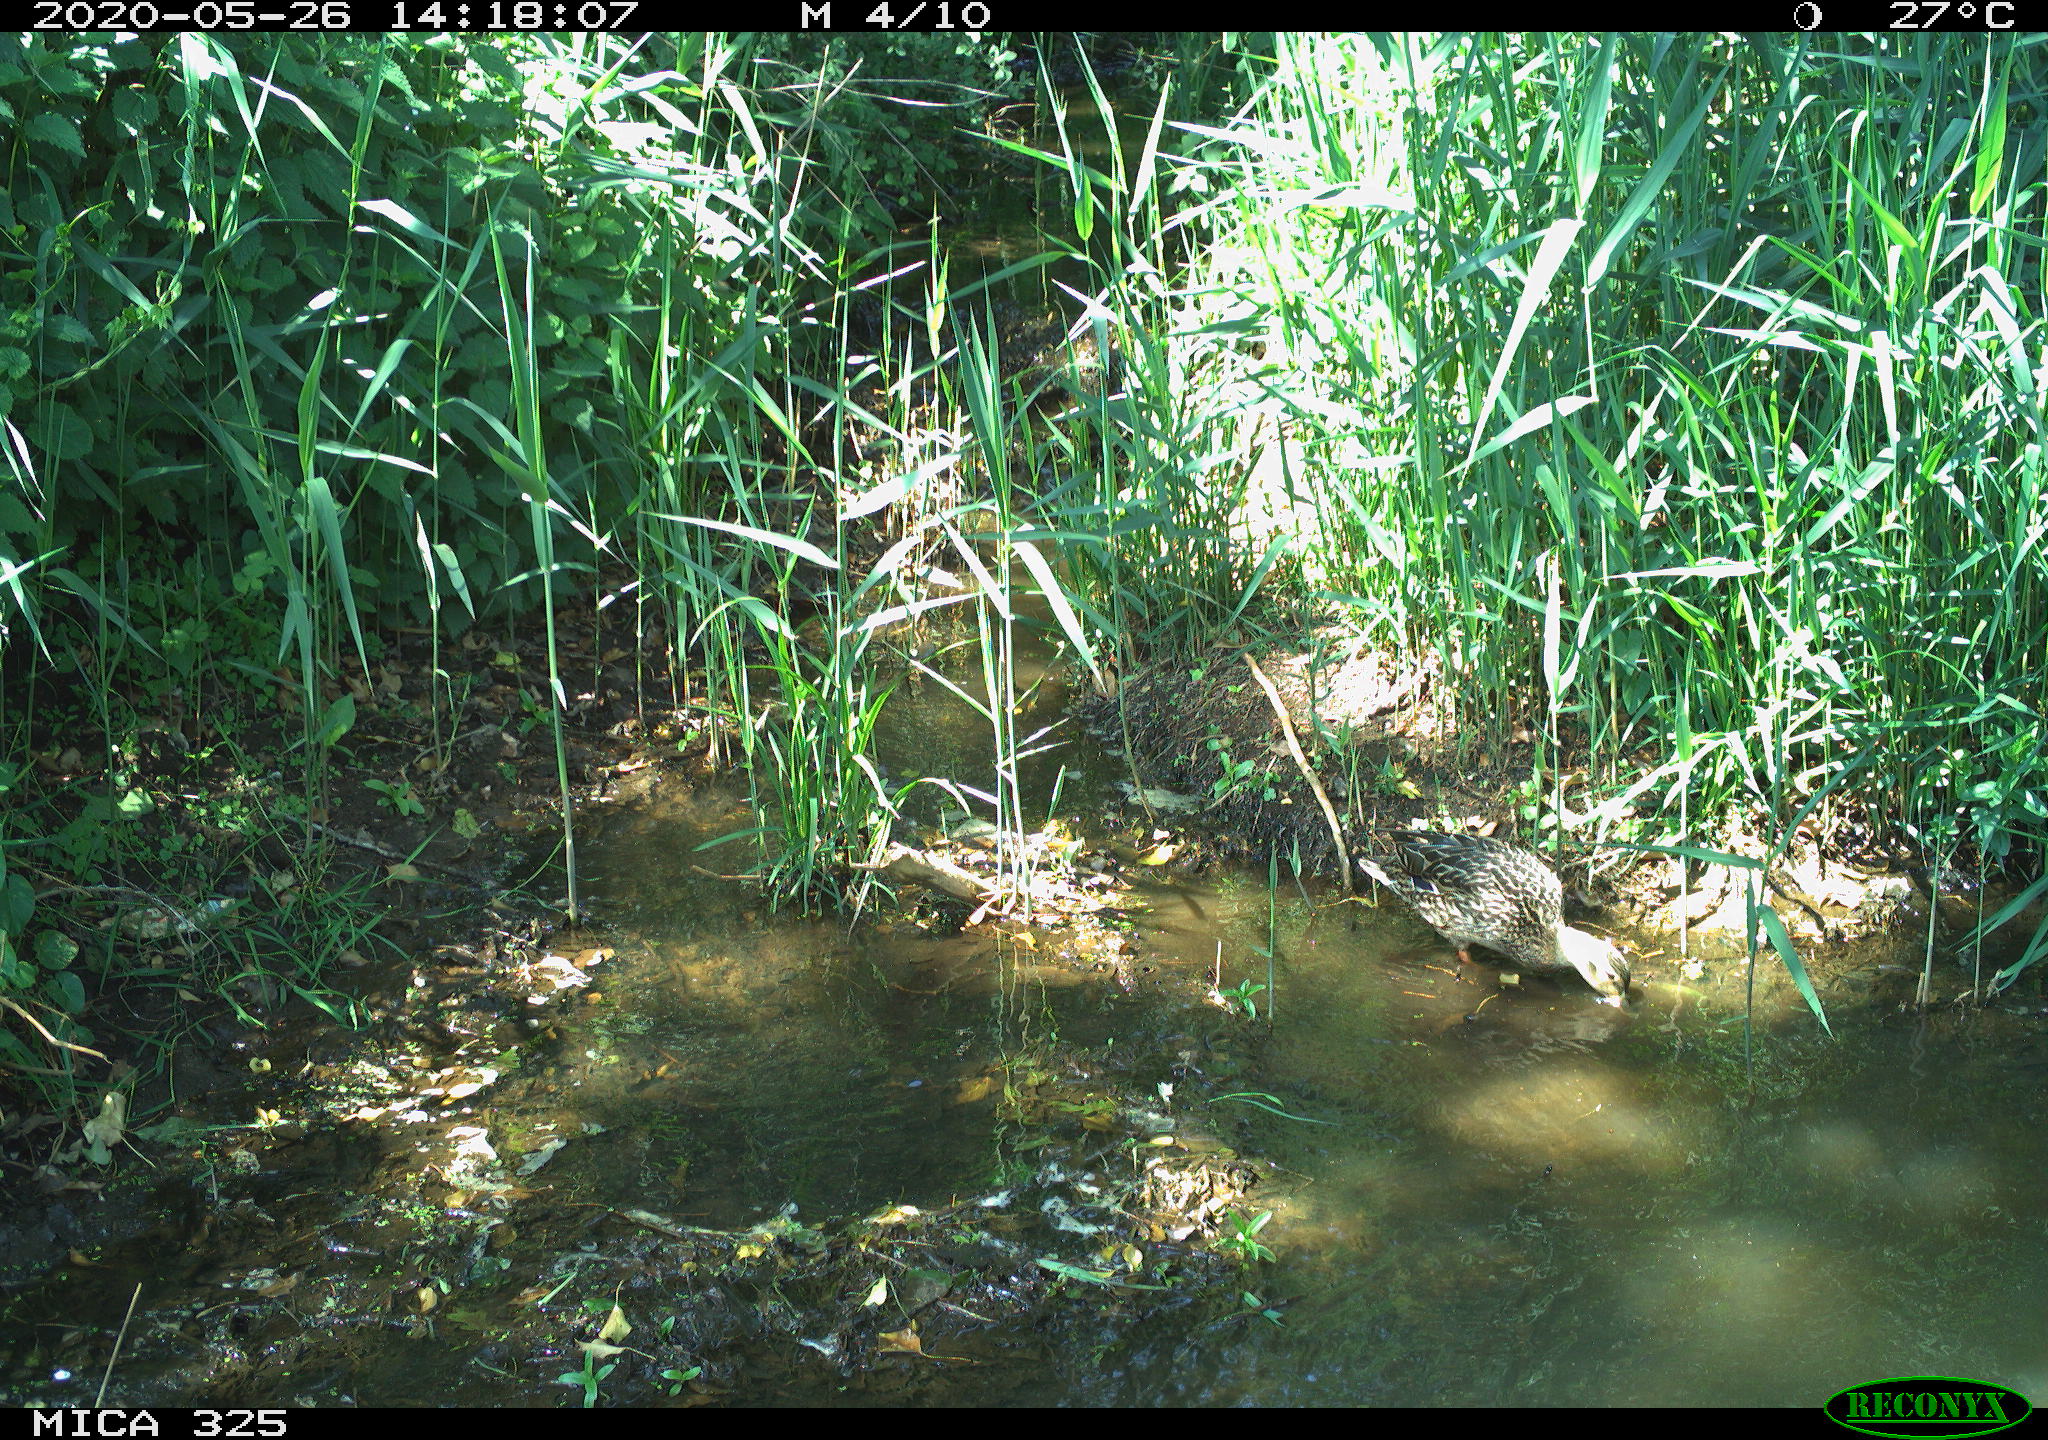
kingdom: Animalia
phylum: Chordata
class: Aves
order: Anseriformes
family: Anatidae
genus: Anas
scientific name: Anas platyrhynchos
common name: Mallard
